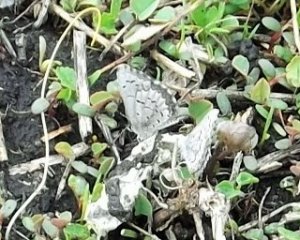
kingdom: Animalia
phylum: Arthropoda
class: Insecta
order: Lepidoptera
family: Lycaenidae
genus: Celastrina
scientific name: Celastrina serotina
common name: Cherry Gall Azure
